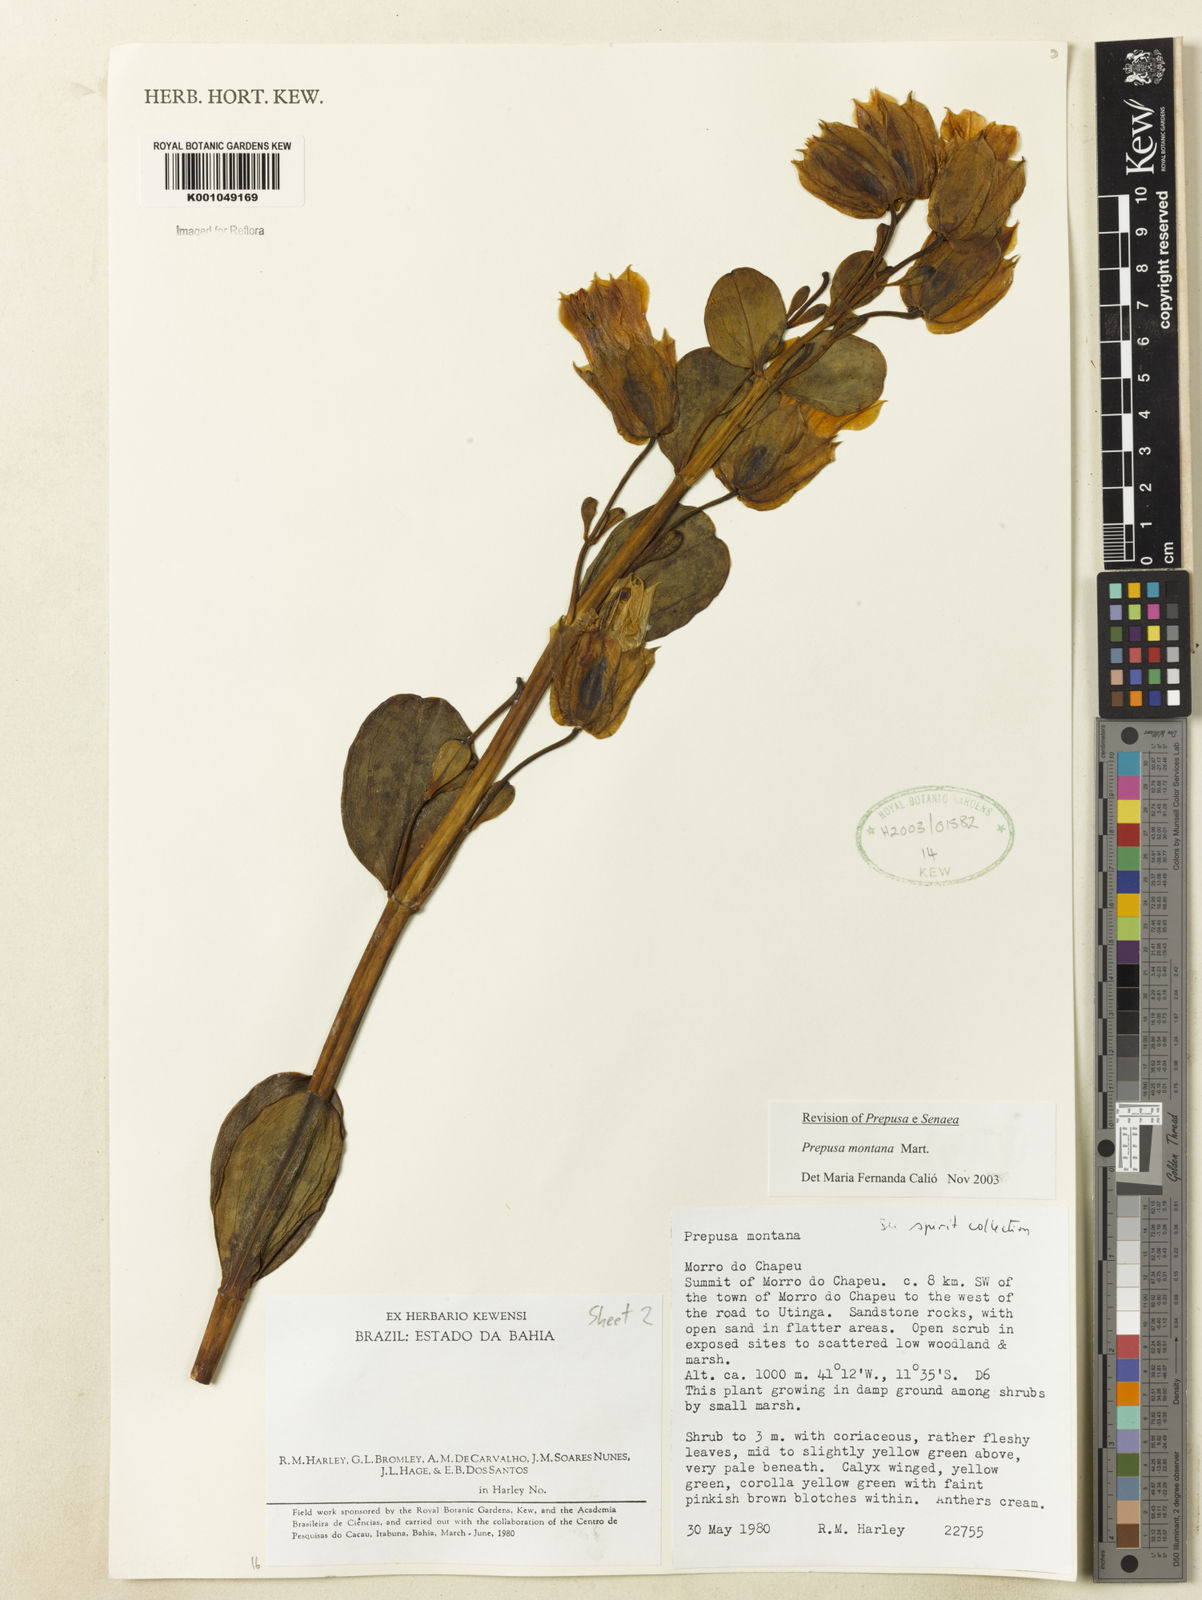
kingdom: Plantae
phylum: Tracheophyta
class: Magnoliopsida
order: Gentianales
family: Gentianaceae
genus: Prepusa
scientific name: Prepusa montana
